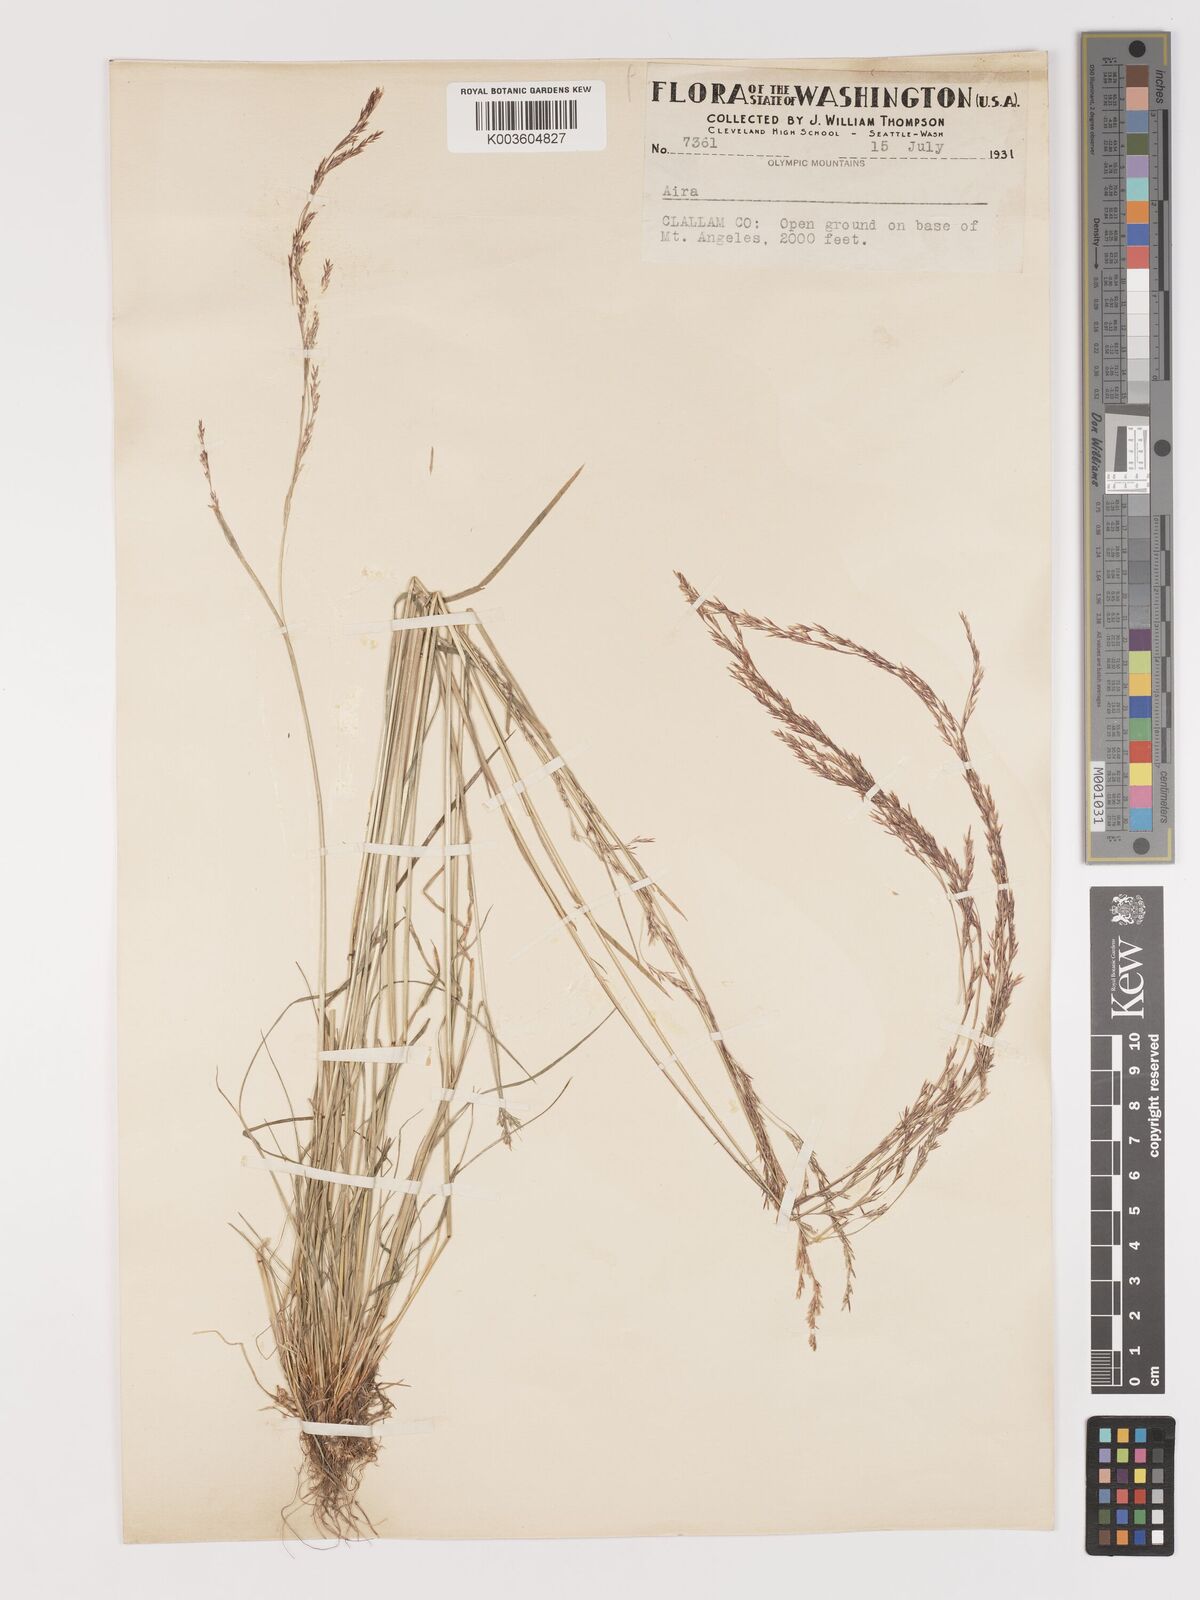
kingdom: Plantae
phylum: Tracheophyta
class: Liliopsida
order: Poales
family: Poaceae
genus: Agrostis
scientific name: Agrostis
